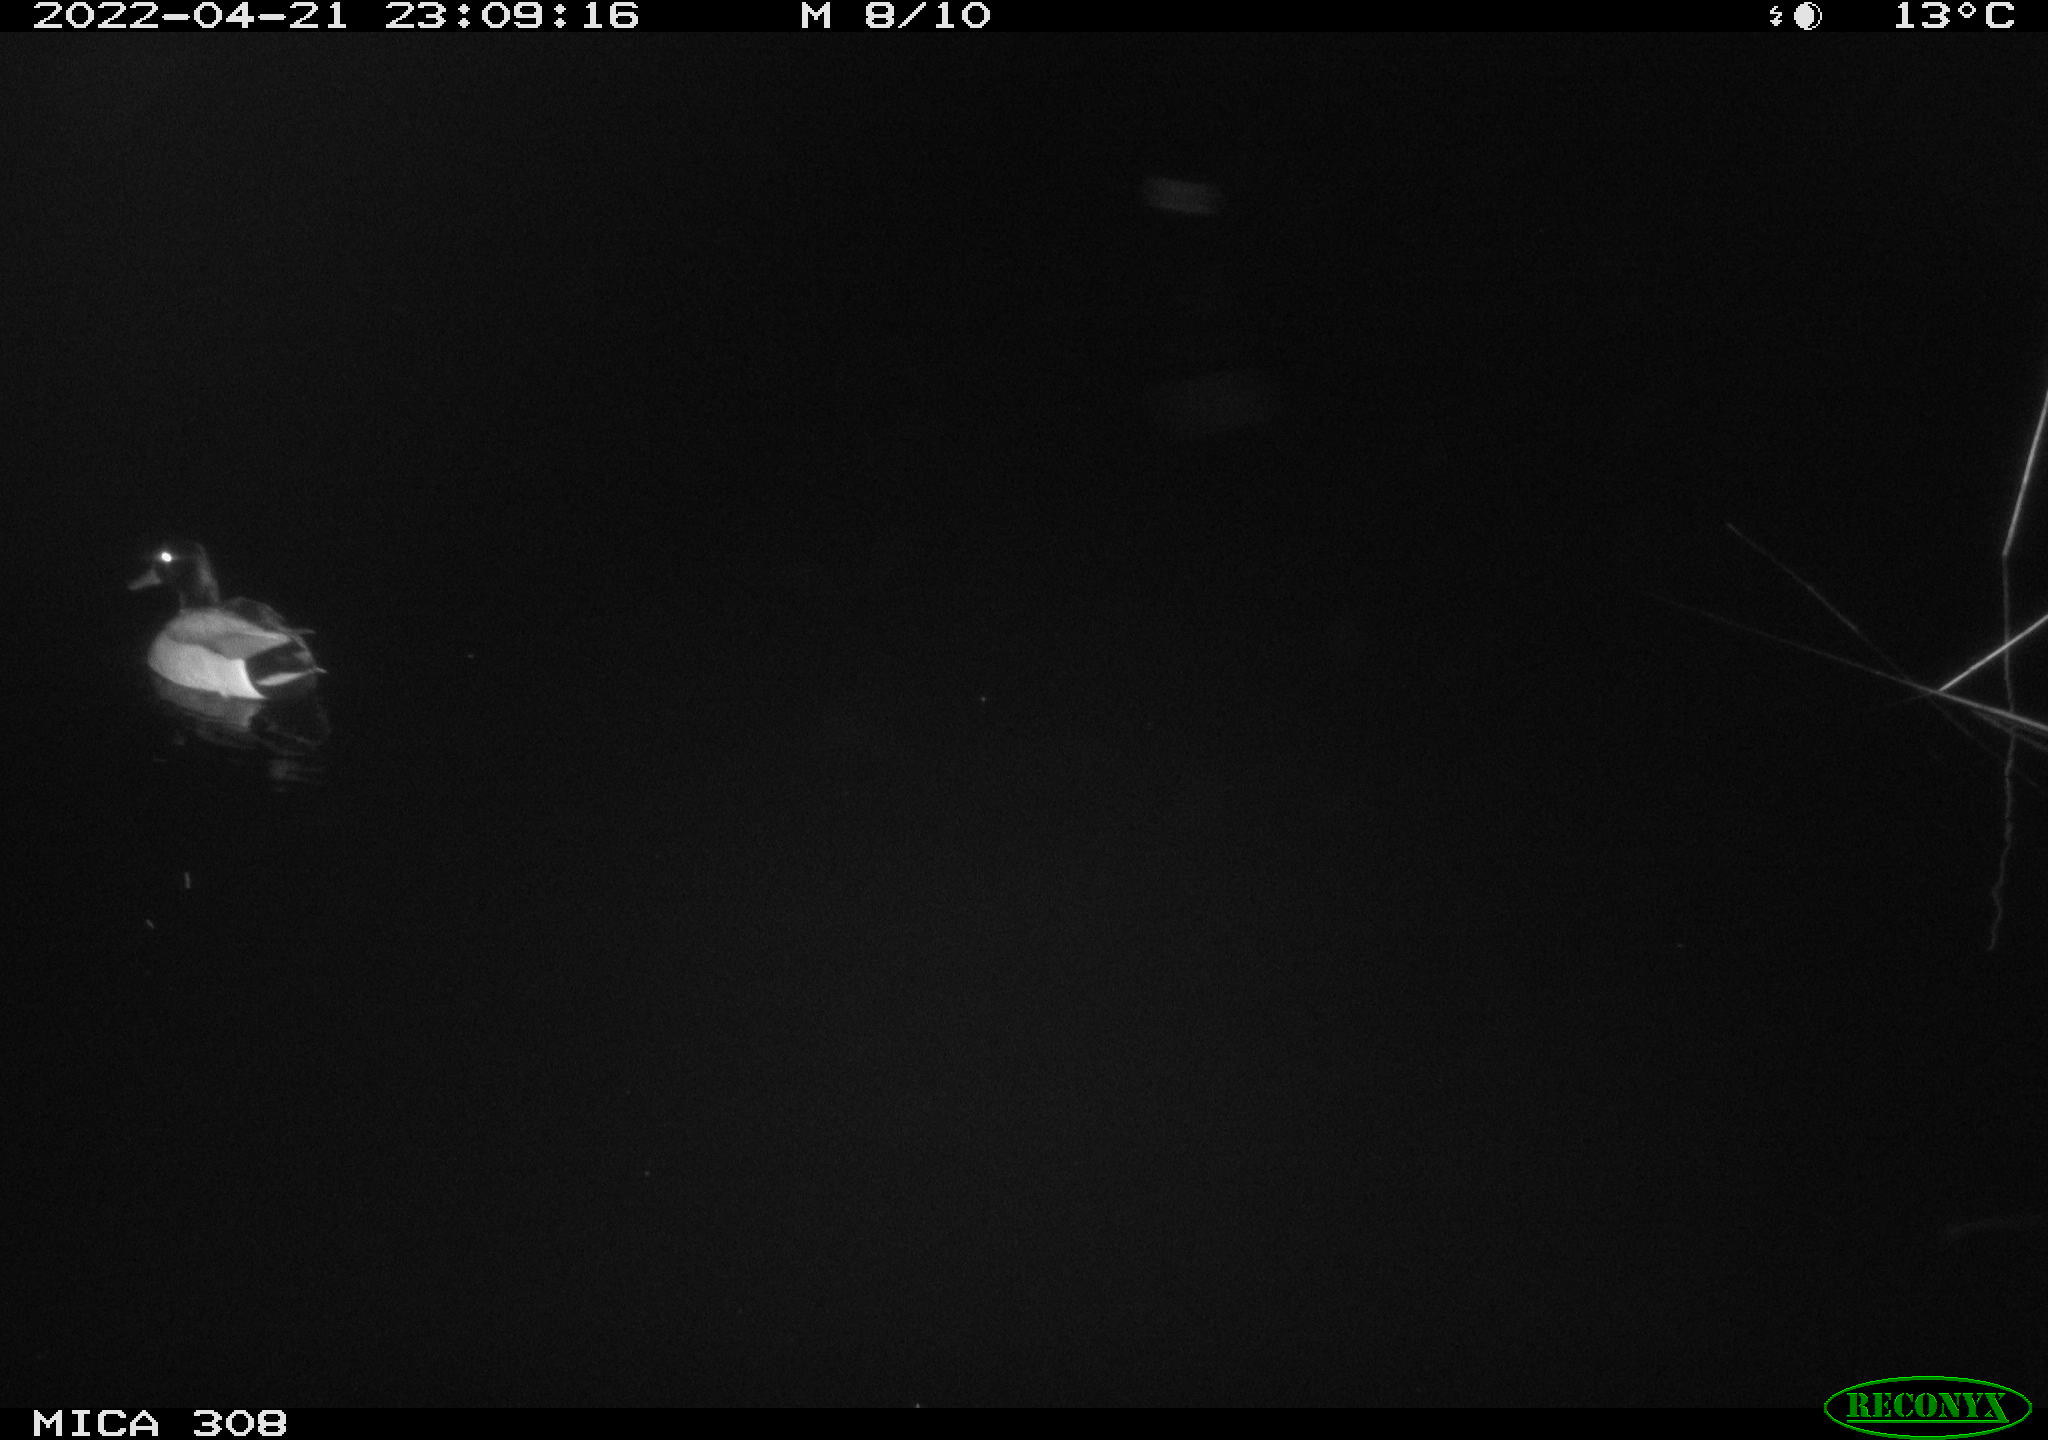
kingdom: Animalia
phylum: Chordata
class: Aves
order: Anseriformes
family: Anatidae
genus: Anas
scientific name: Anas platyrhynchos
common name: Mallard
